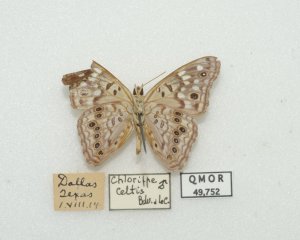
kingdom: Animalia
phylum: Arthropoda
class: Insecta
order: Lepidoptera
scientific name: Lepidoptera
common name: Butterflies
